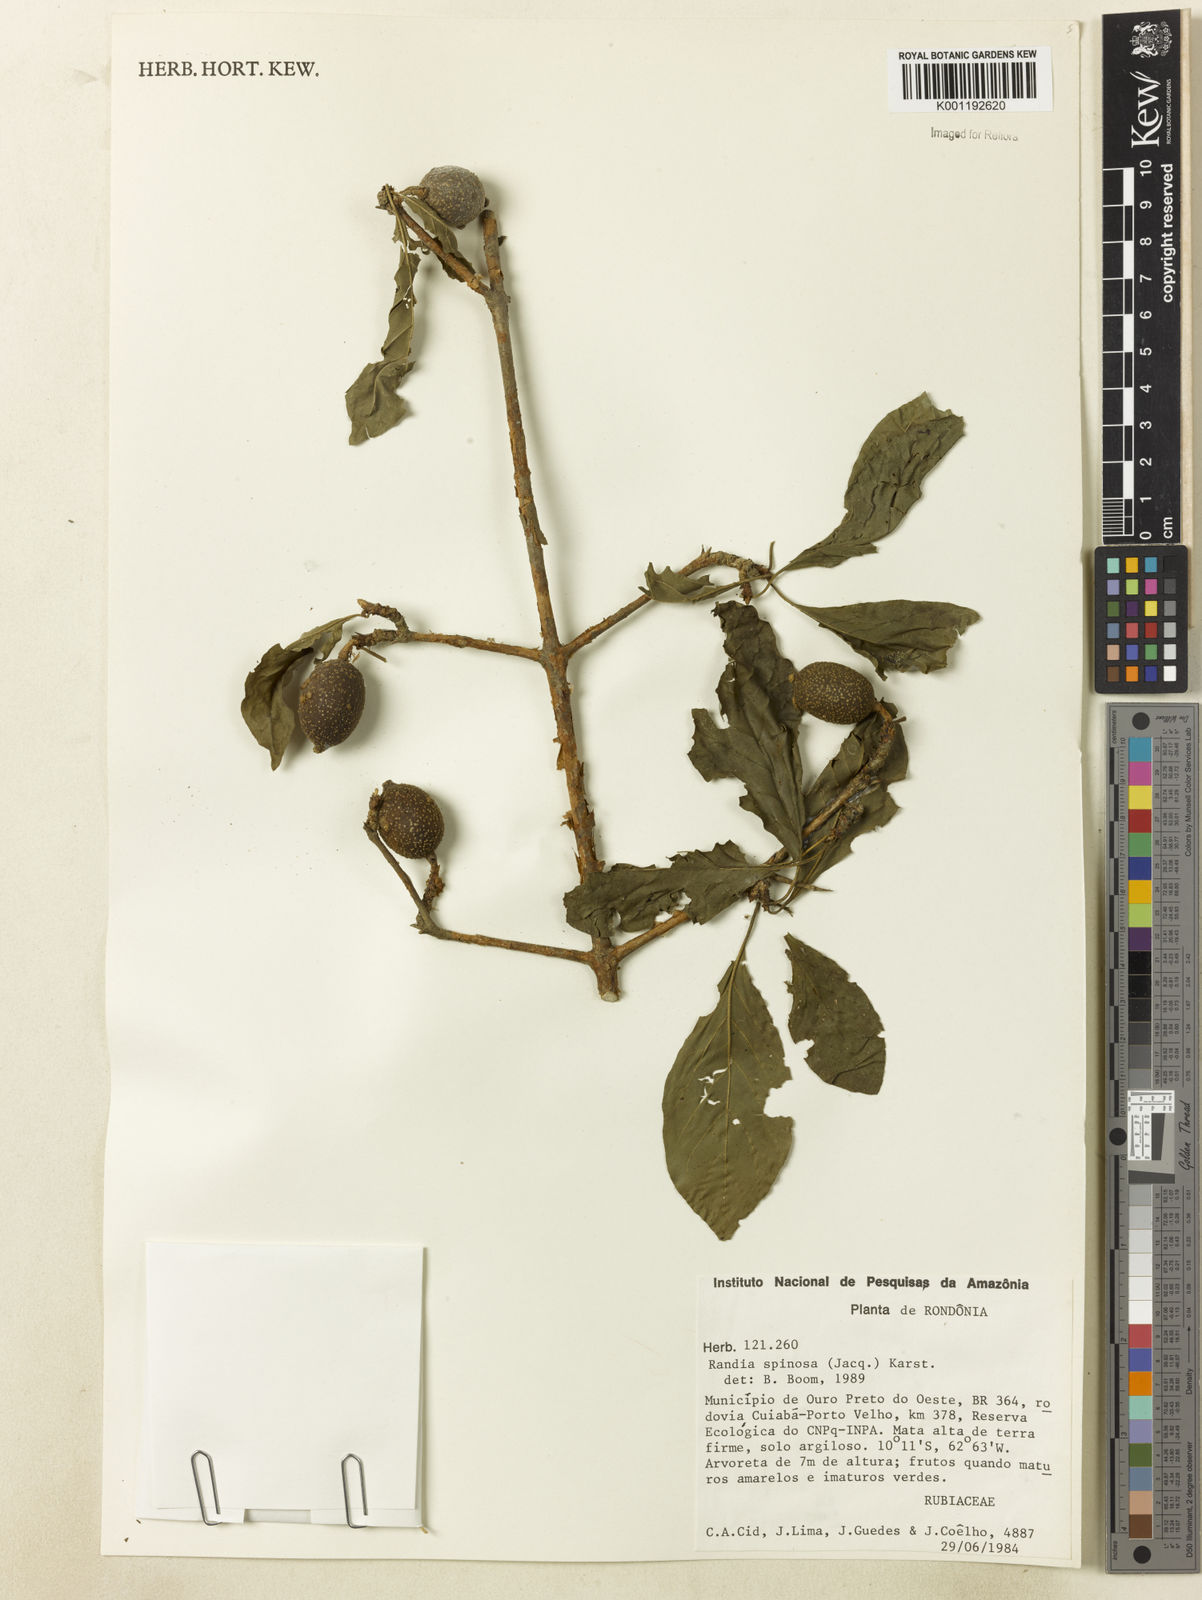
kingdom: Plantae
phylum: Tracheophyta
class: Magnoliopsida
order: Gentianales
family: Rubiaceae
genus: Randia
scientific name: Randia armata
